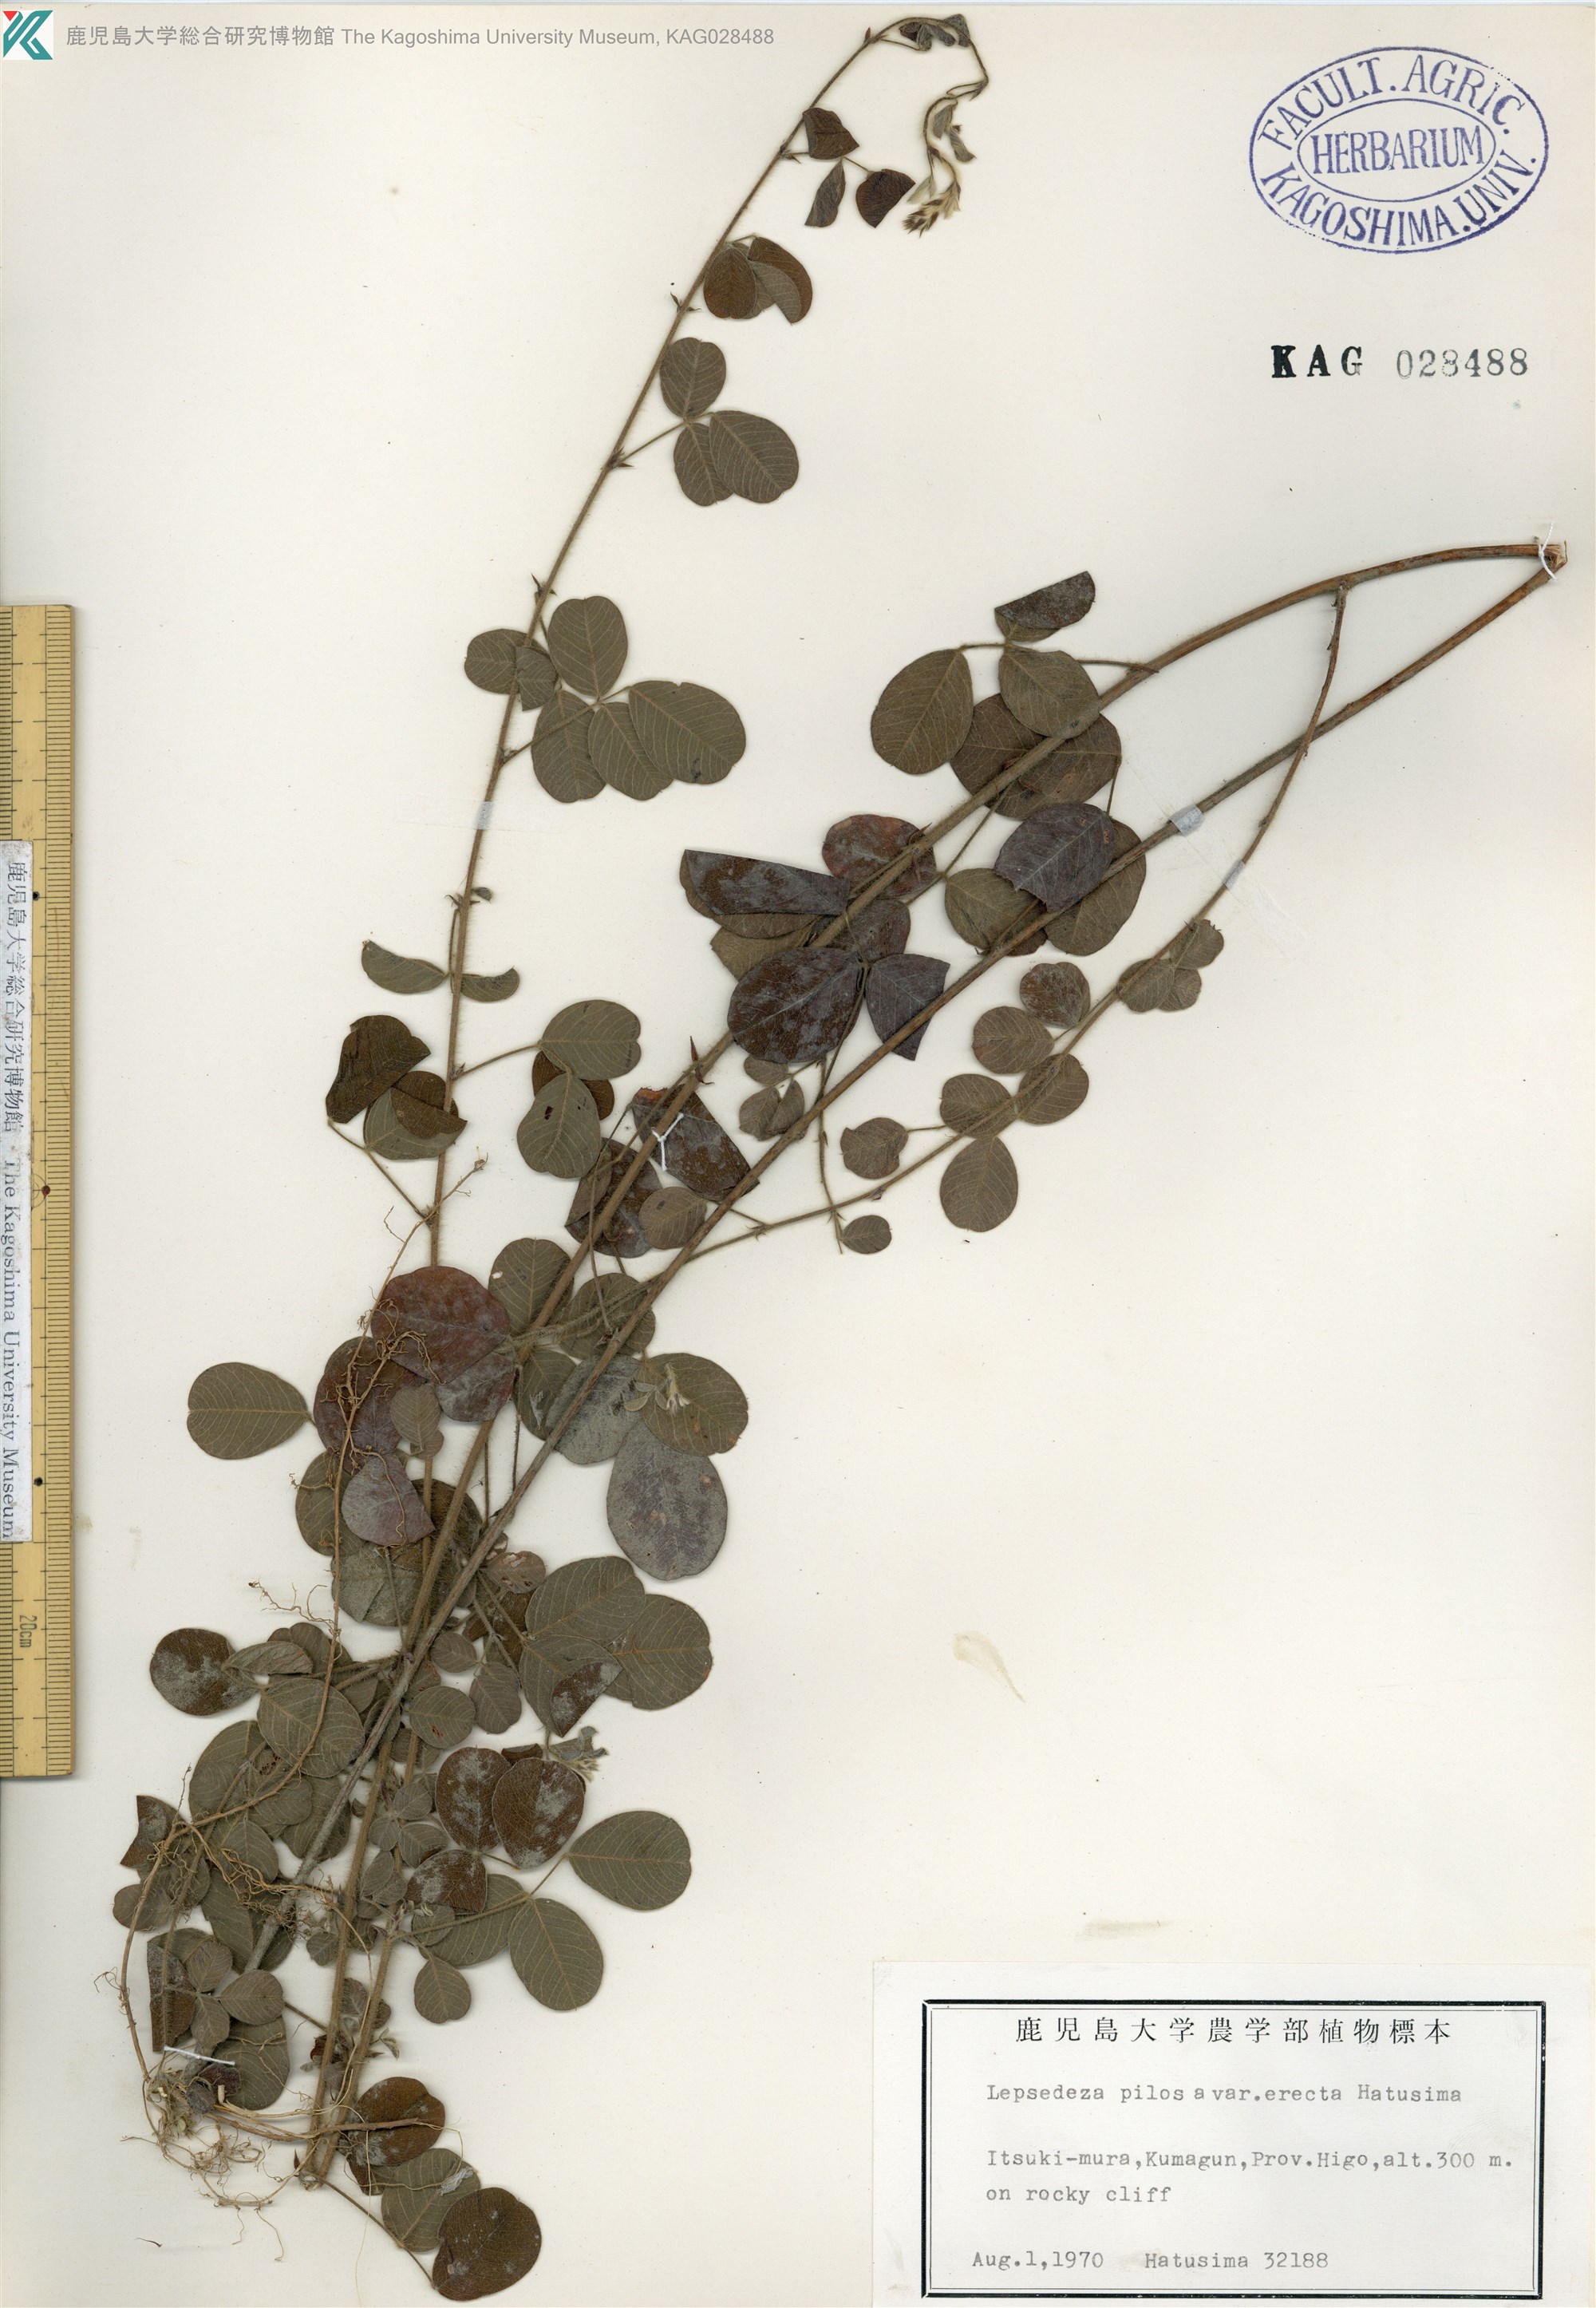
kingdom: Plantae
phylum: Tracheophyta
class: Magnoliopsida
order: Fabales
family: Fabaceae
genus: Lespedeza
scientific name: Lespedeza pilosa
